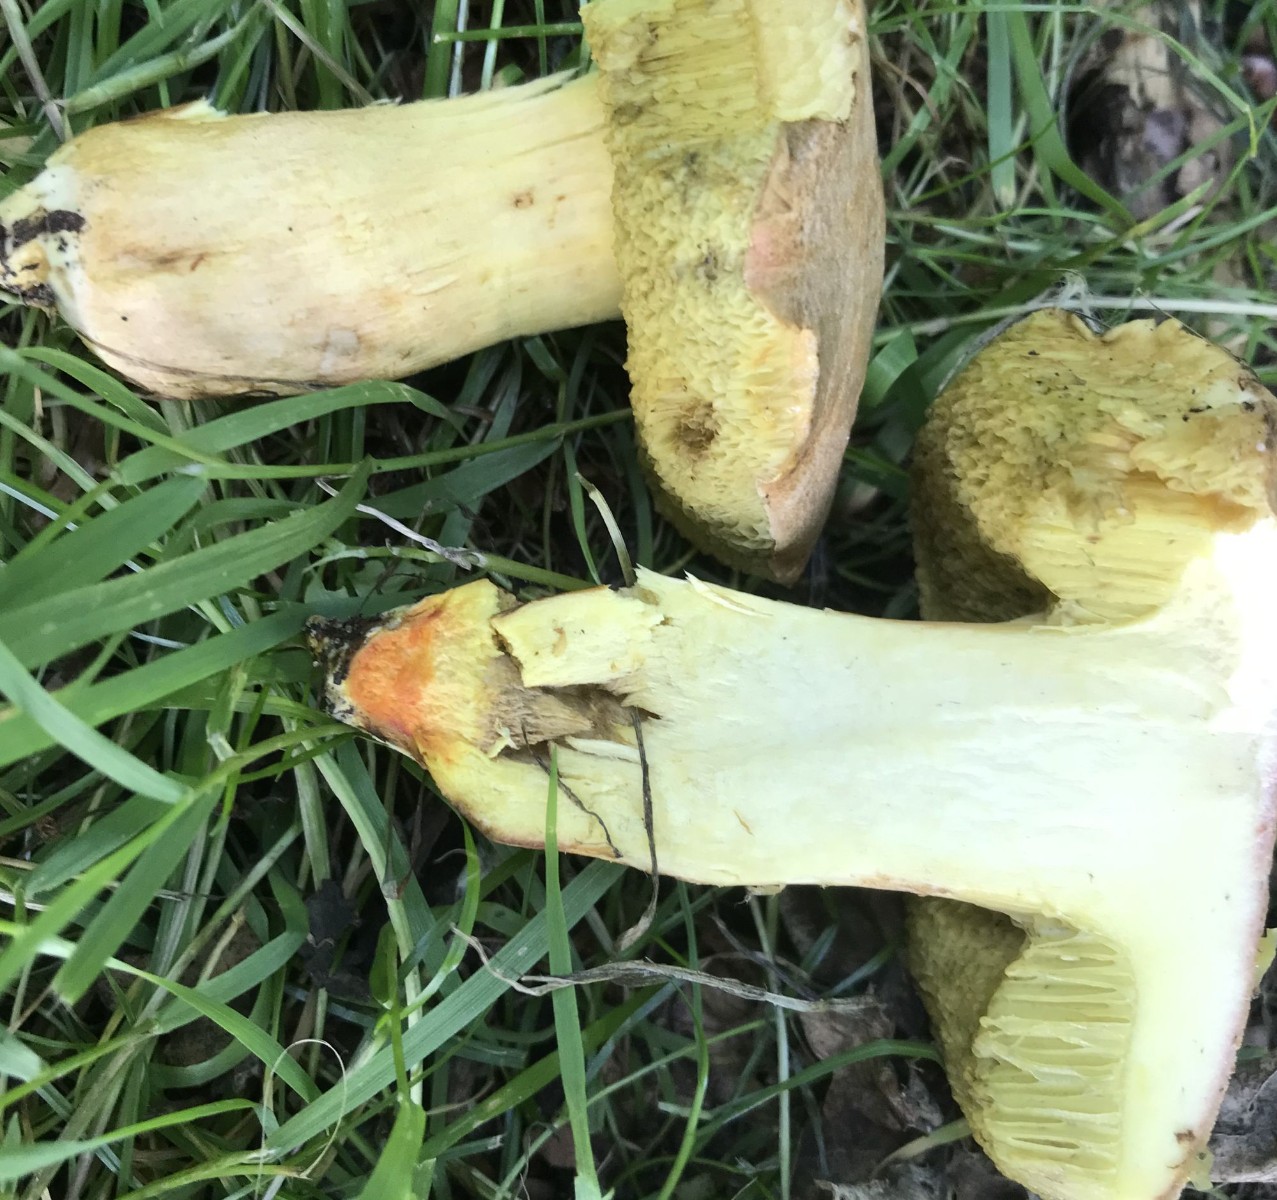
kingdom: Fungi
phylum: Basidiomycota
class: Agaricomycetes
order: Boletales
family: Boletaceae
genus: Hortiboletus
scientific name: Hortiboletus engelii
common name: fersken-rørhat
